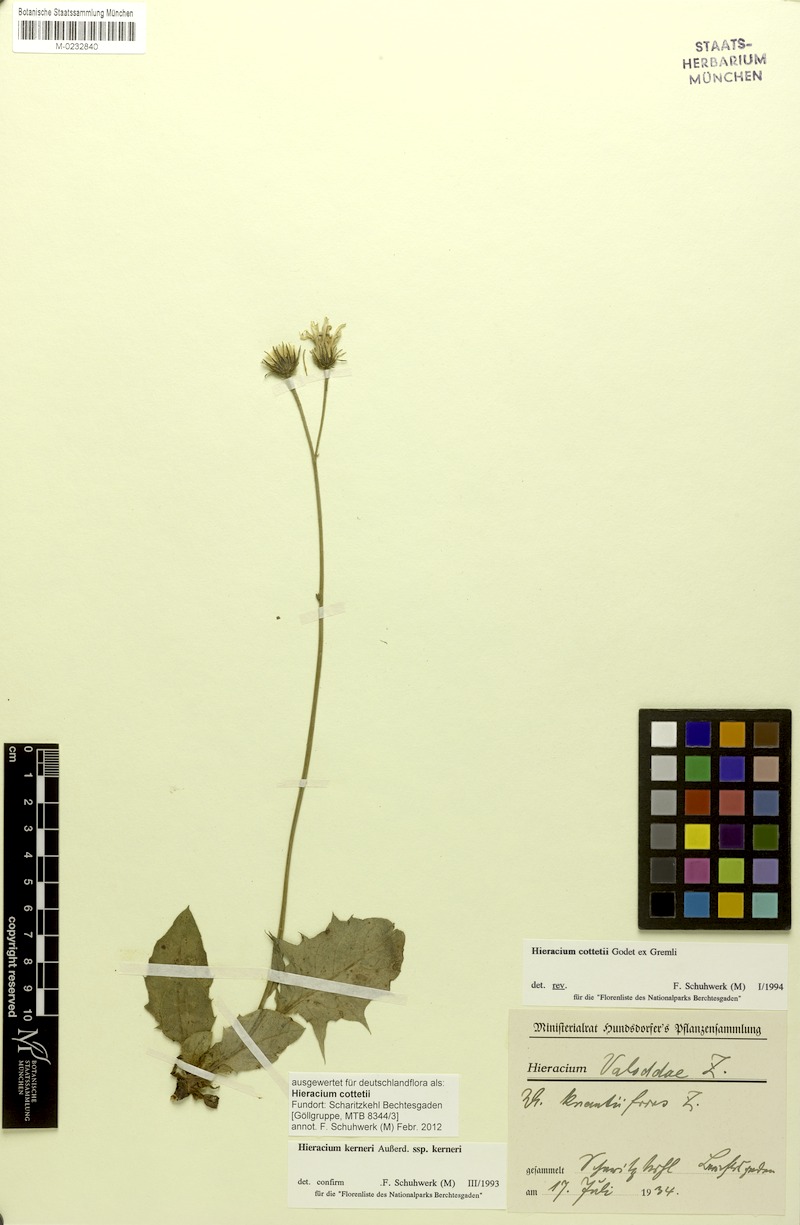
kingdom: Plantae
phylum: Tracheophyta
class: Magnoliopsida
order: Asterales
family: Asteraceae
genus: Hieracium
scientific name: Hieracium cottetii
